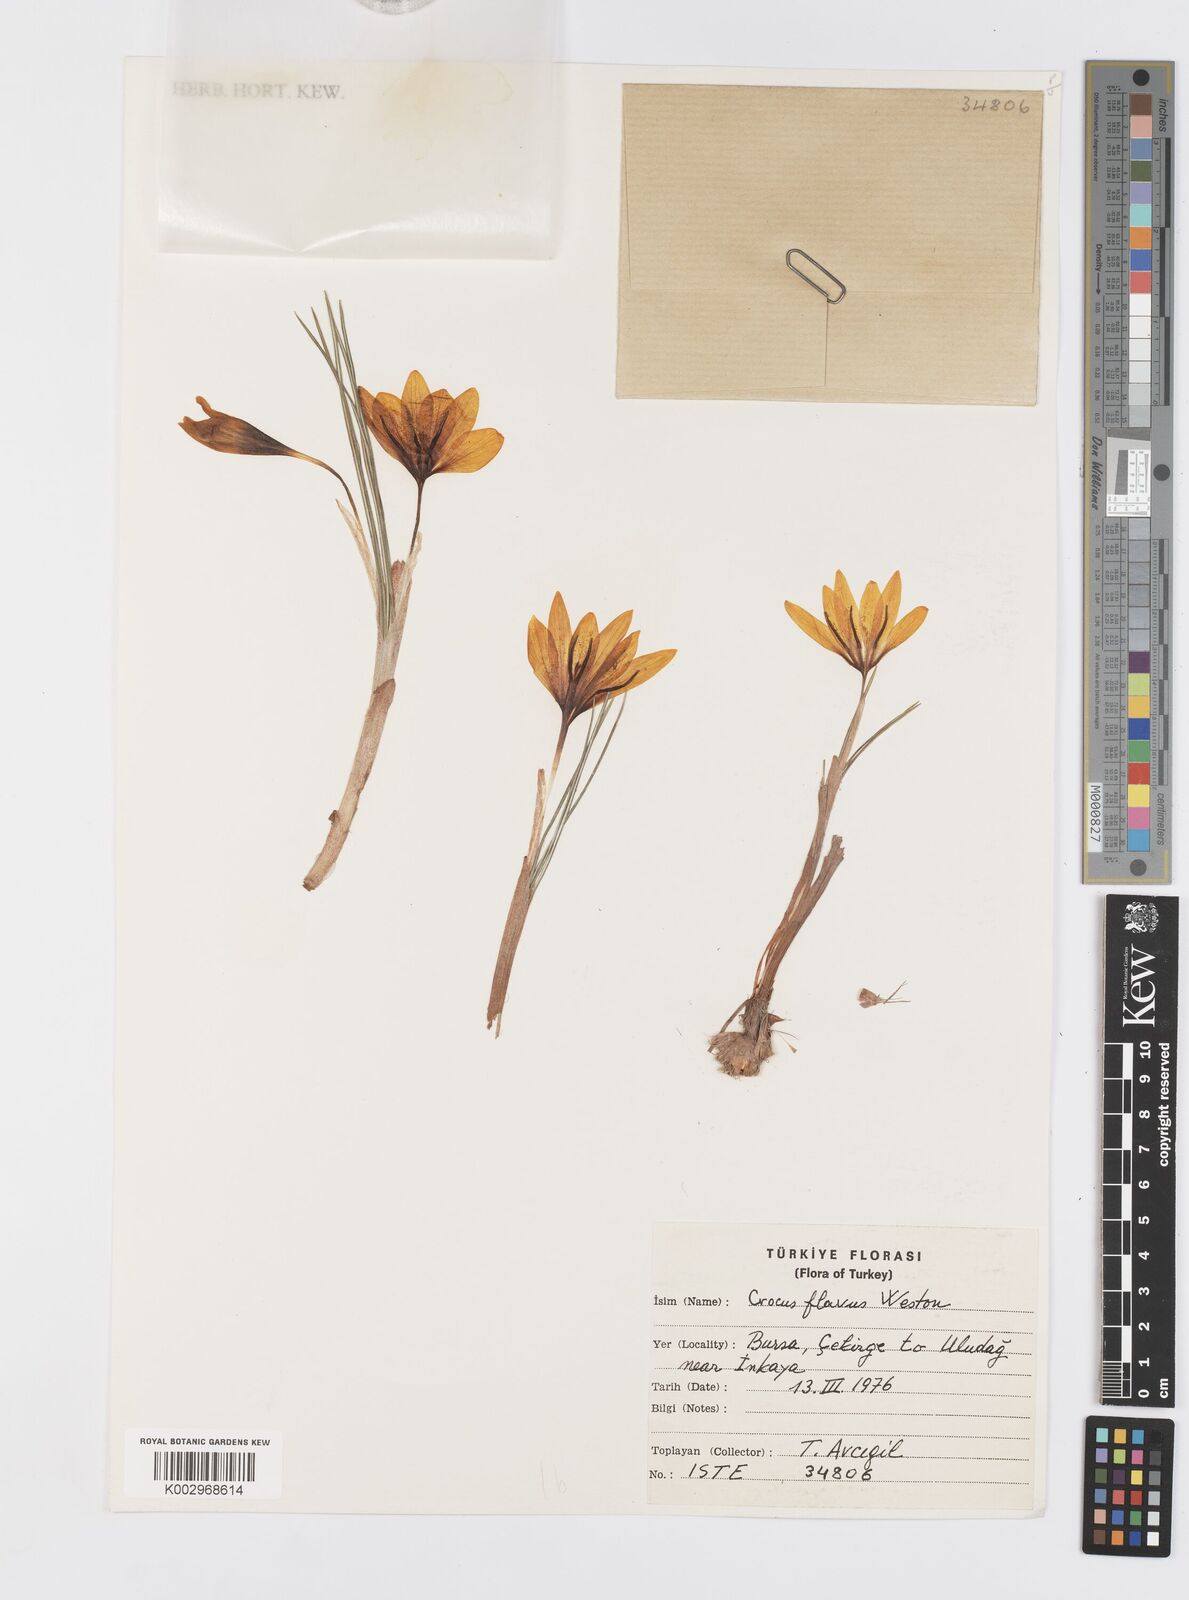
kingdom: Plantae
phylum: Tracheophyta
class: Liliopsida
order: Asparagales
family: Iridaceae
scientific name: Iridaceae
